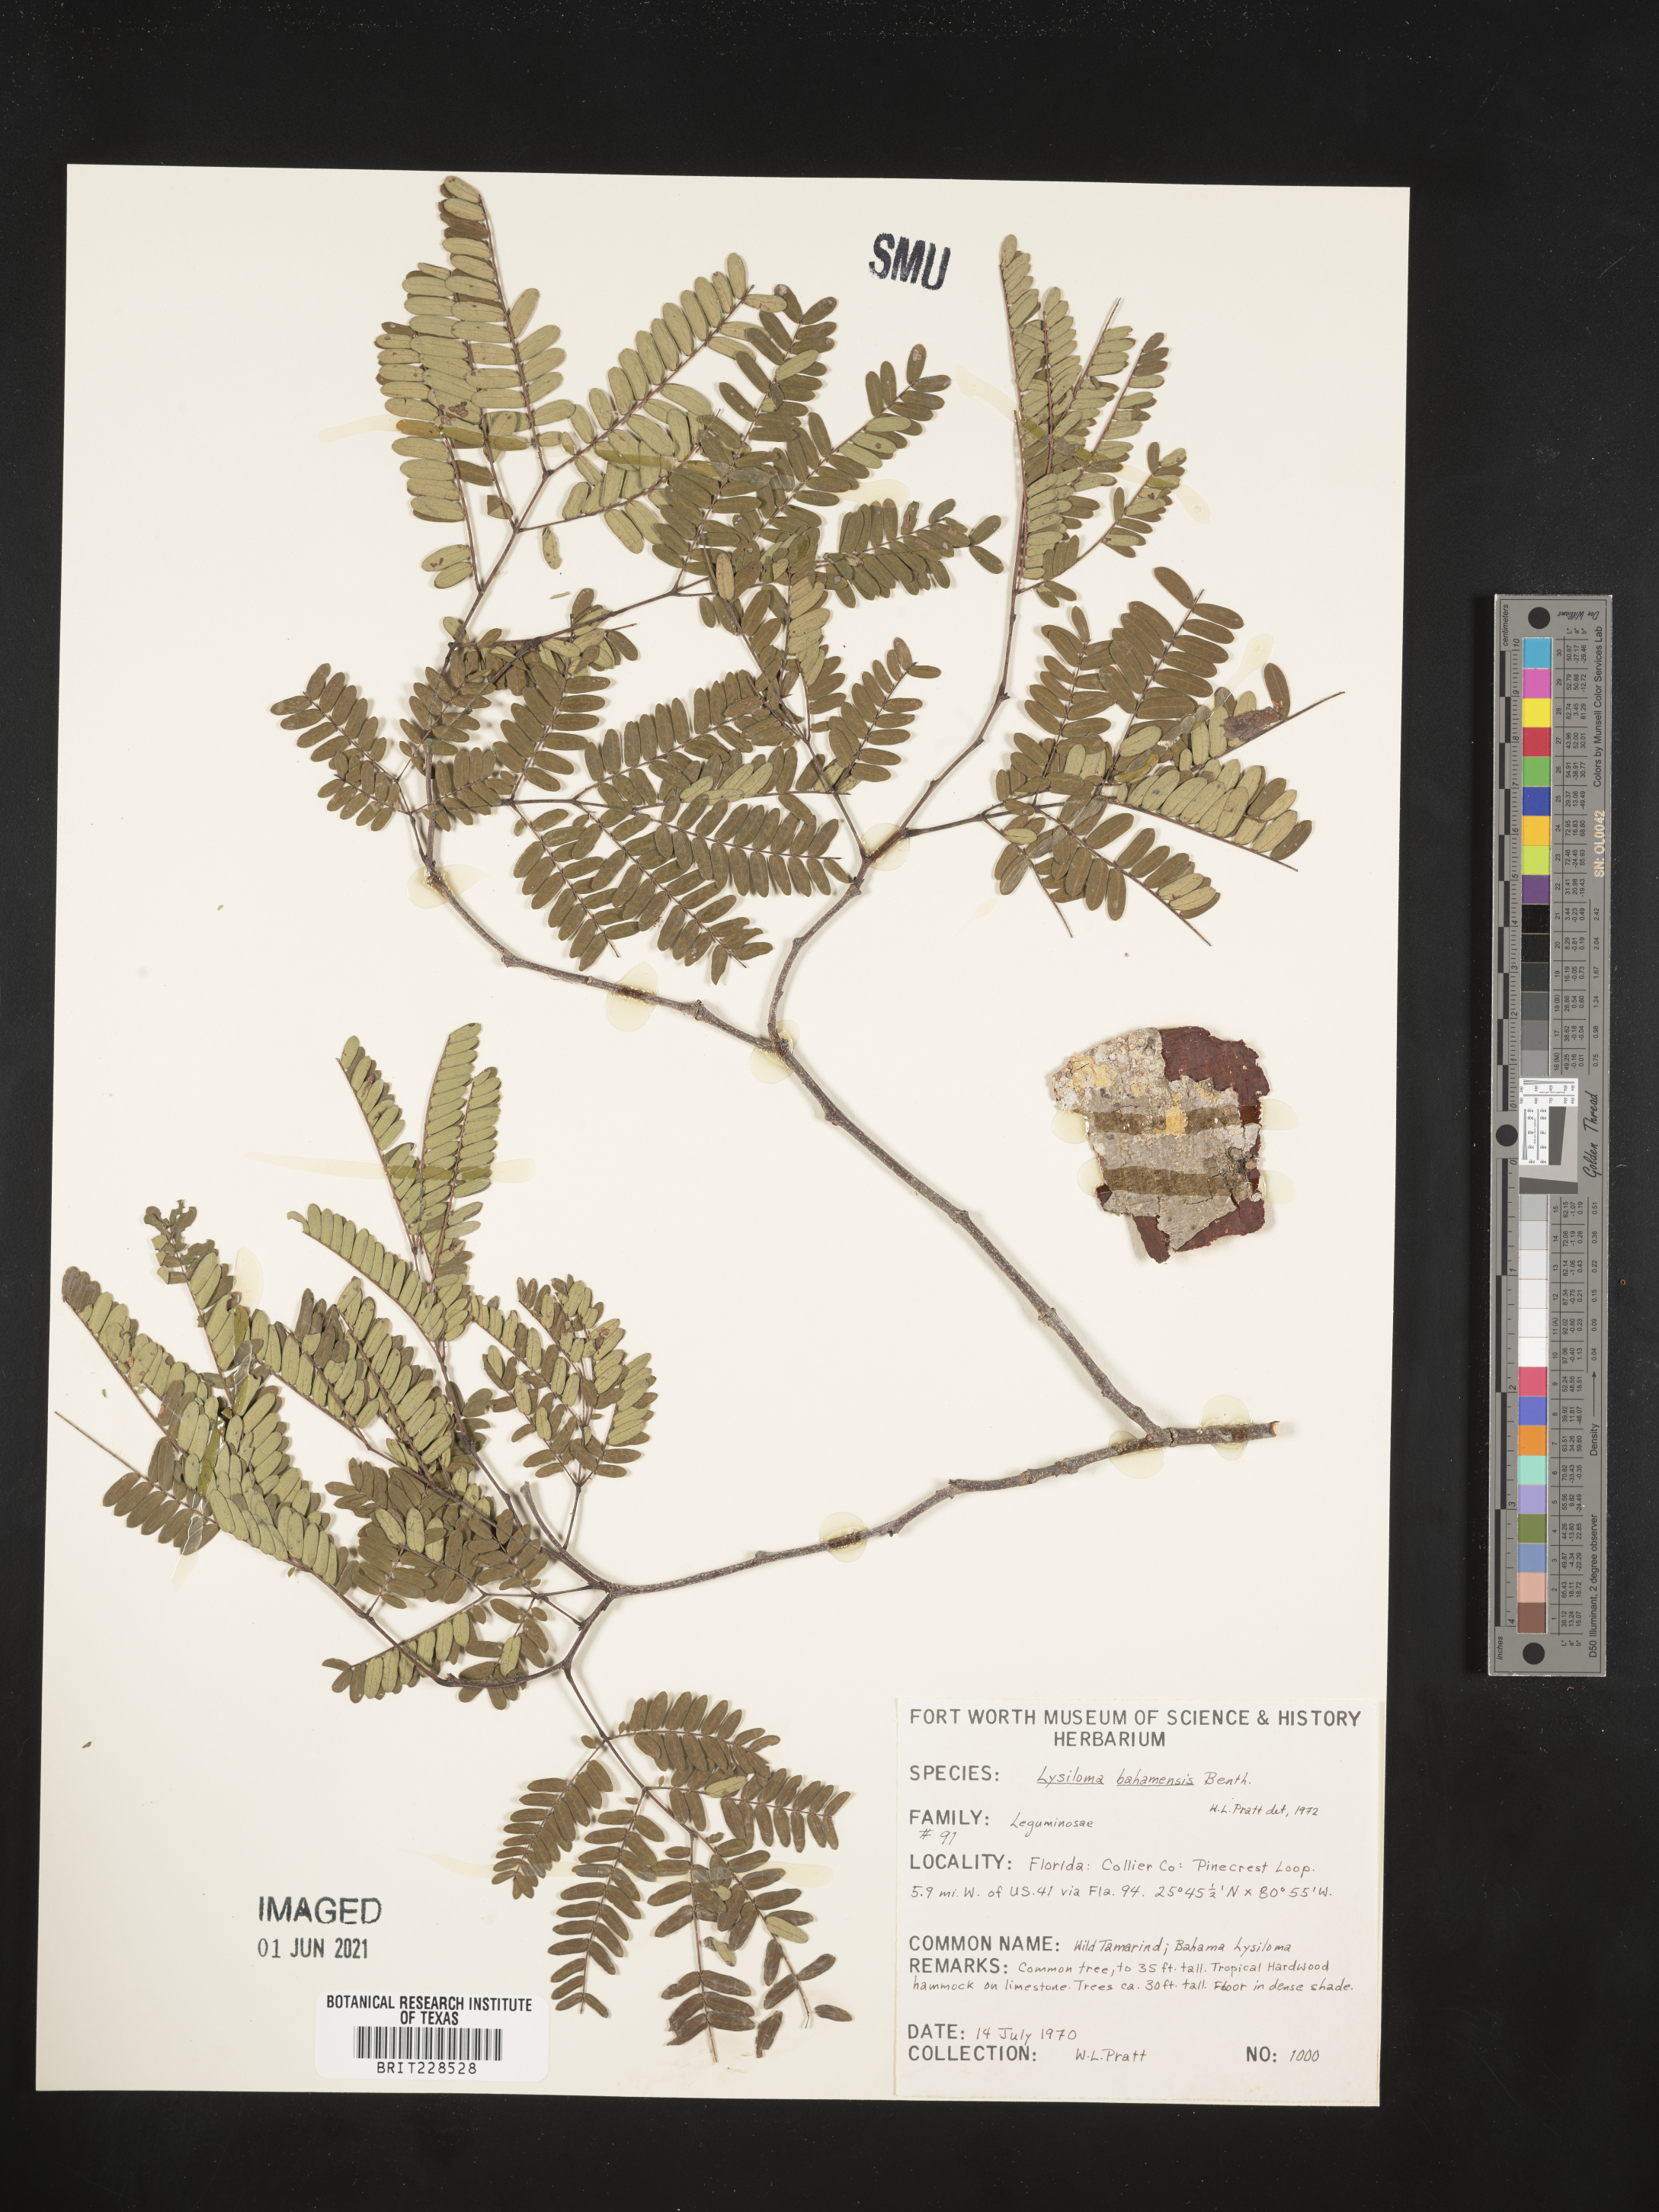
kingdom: Plantae
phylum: Tracheophyta
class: Magnoliopsida
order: Fabales
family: Fabaceae
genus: Lysiloma
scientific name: Lysiloma latisiliquum
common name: Wild tamarind
